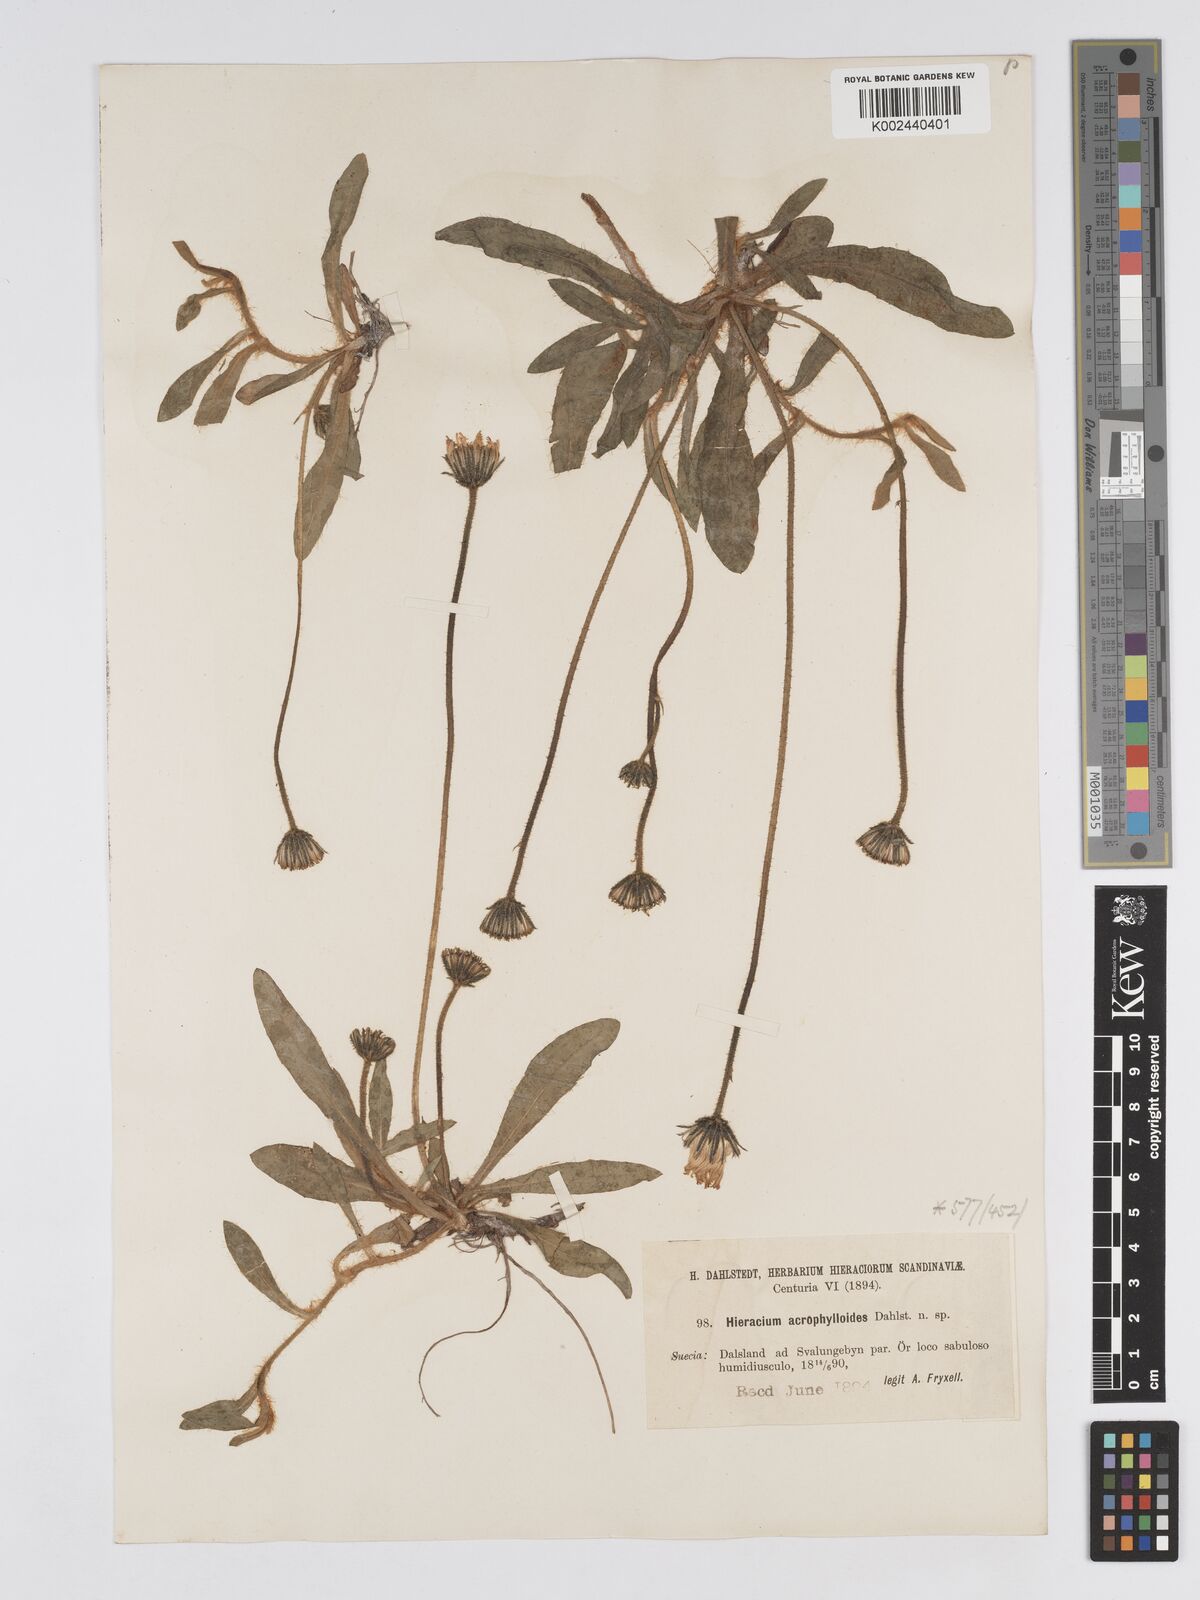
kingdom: Plantae
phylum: Tracheophyta
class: Magnoliopsida
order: Asterales
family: Asteraceae
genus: Pilosella
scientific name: Pilosella officinarum
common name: Mouse-ear hawkweed
